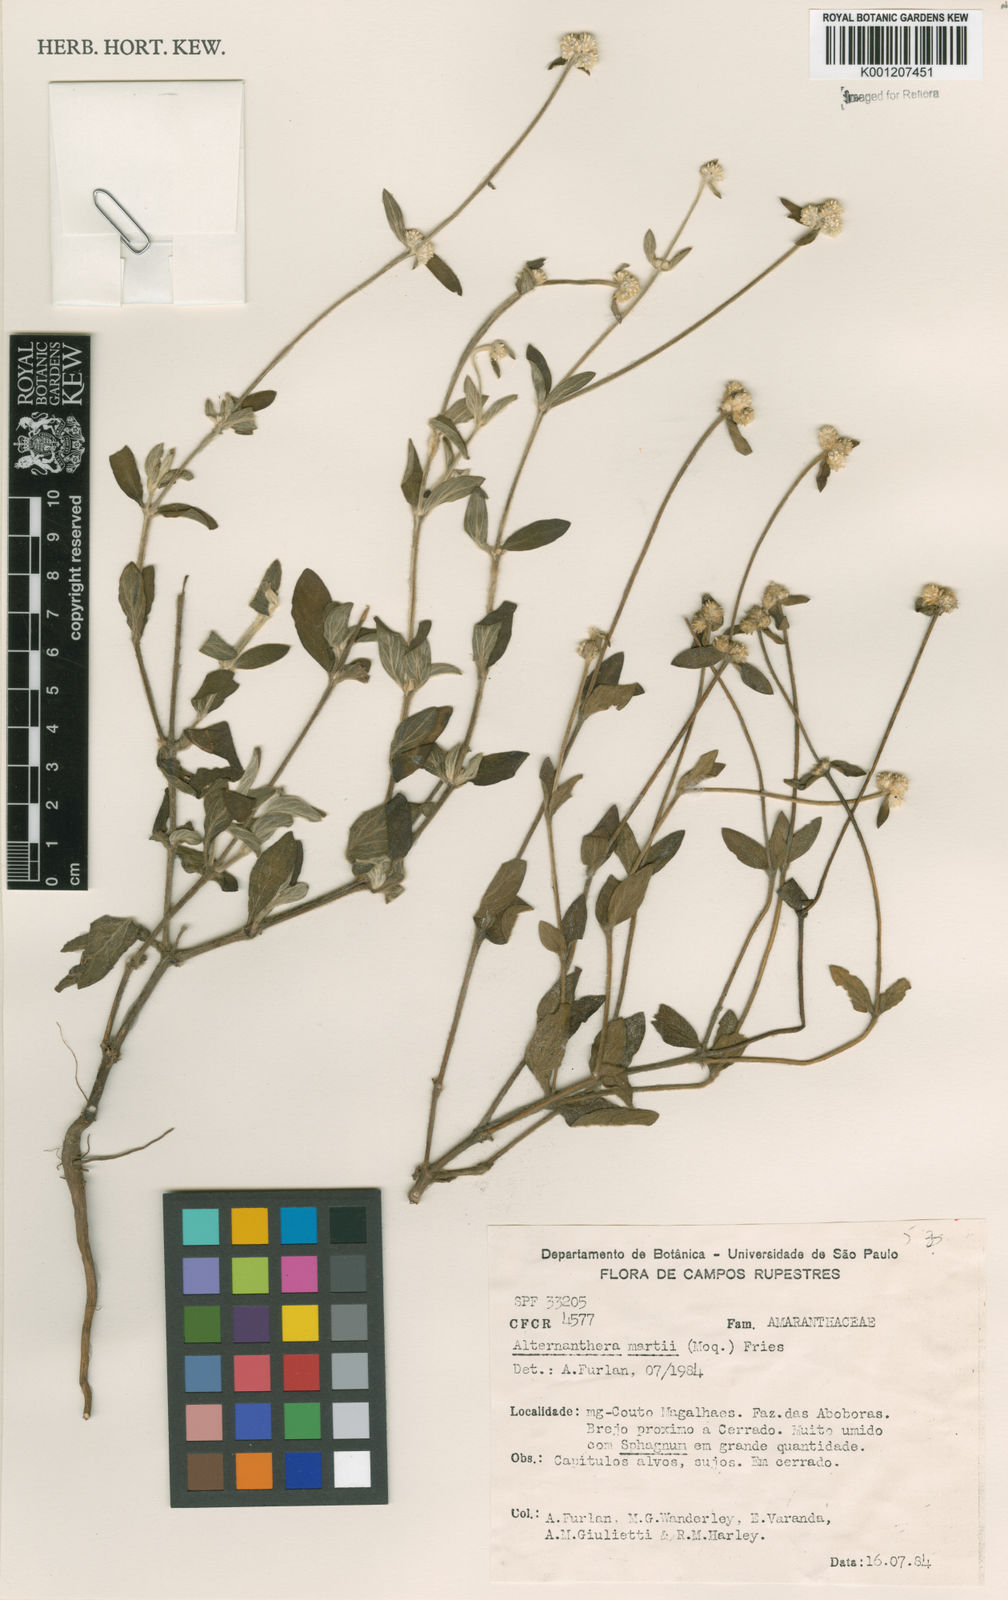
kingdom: Plantae
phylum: Tracheophyta
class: Magnoliopsida
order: Caryophyllales
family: Amaranthaceae
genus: Alternanthera
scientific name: Alternanthera martii
